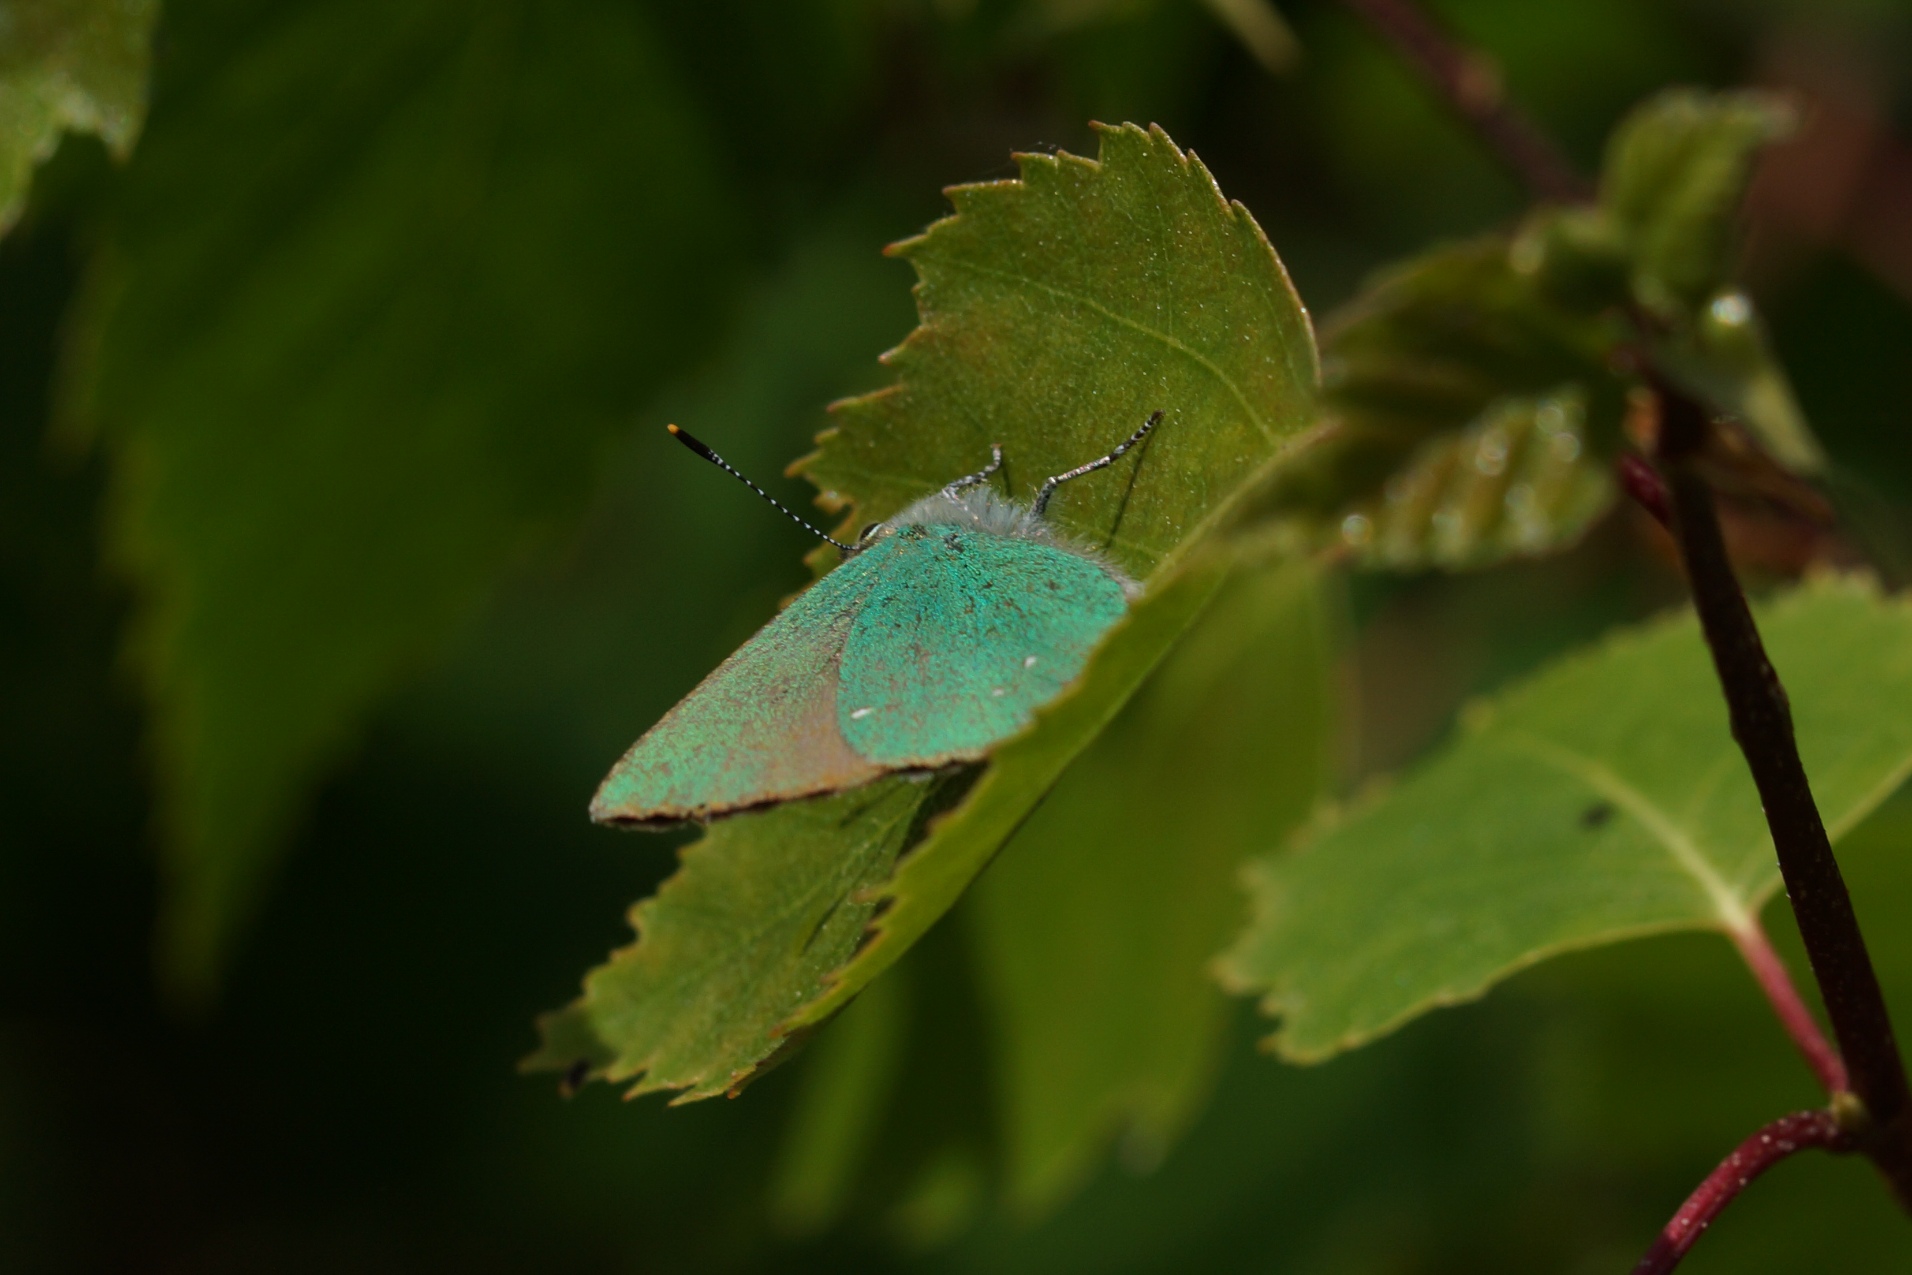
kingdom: Animalia
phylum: Arthropoda
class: Insecta
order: Lepidoptera
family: Lycaenidae
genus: Callophrys
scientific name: Callophrys rubi
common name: Grøn busksommerfugl
